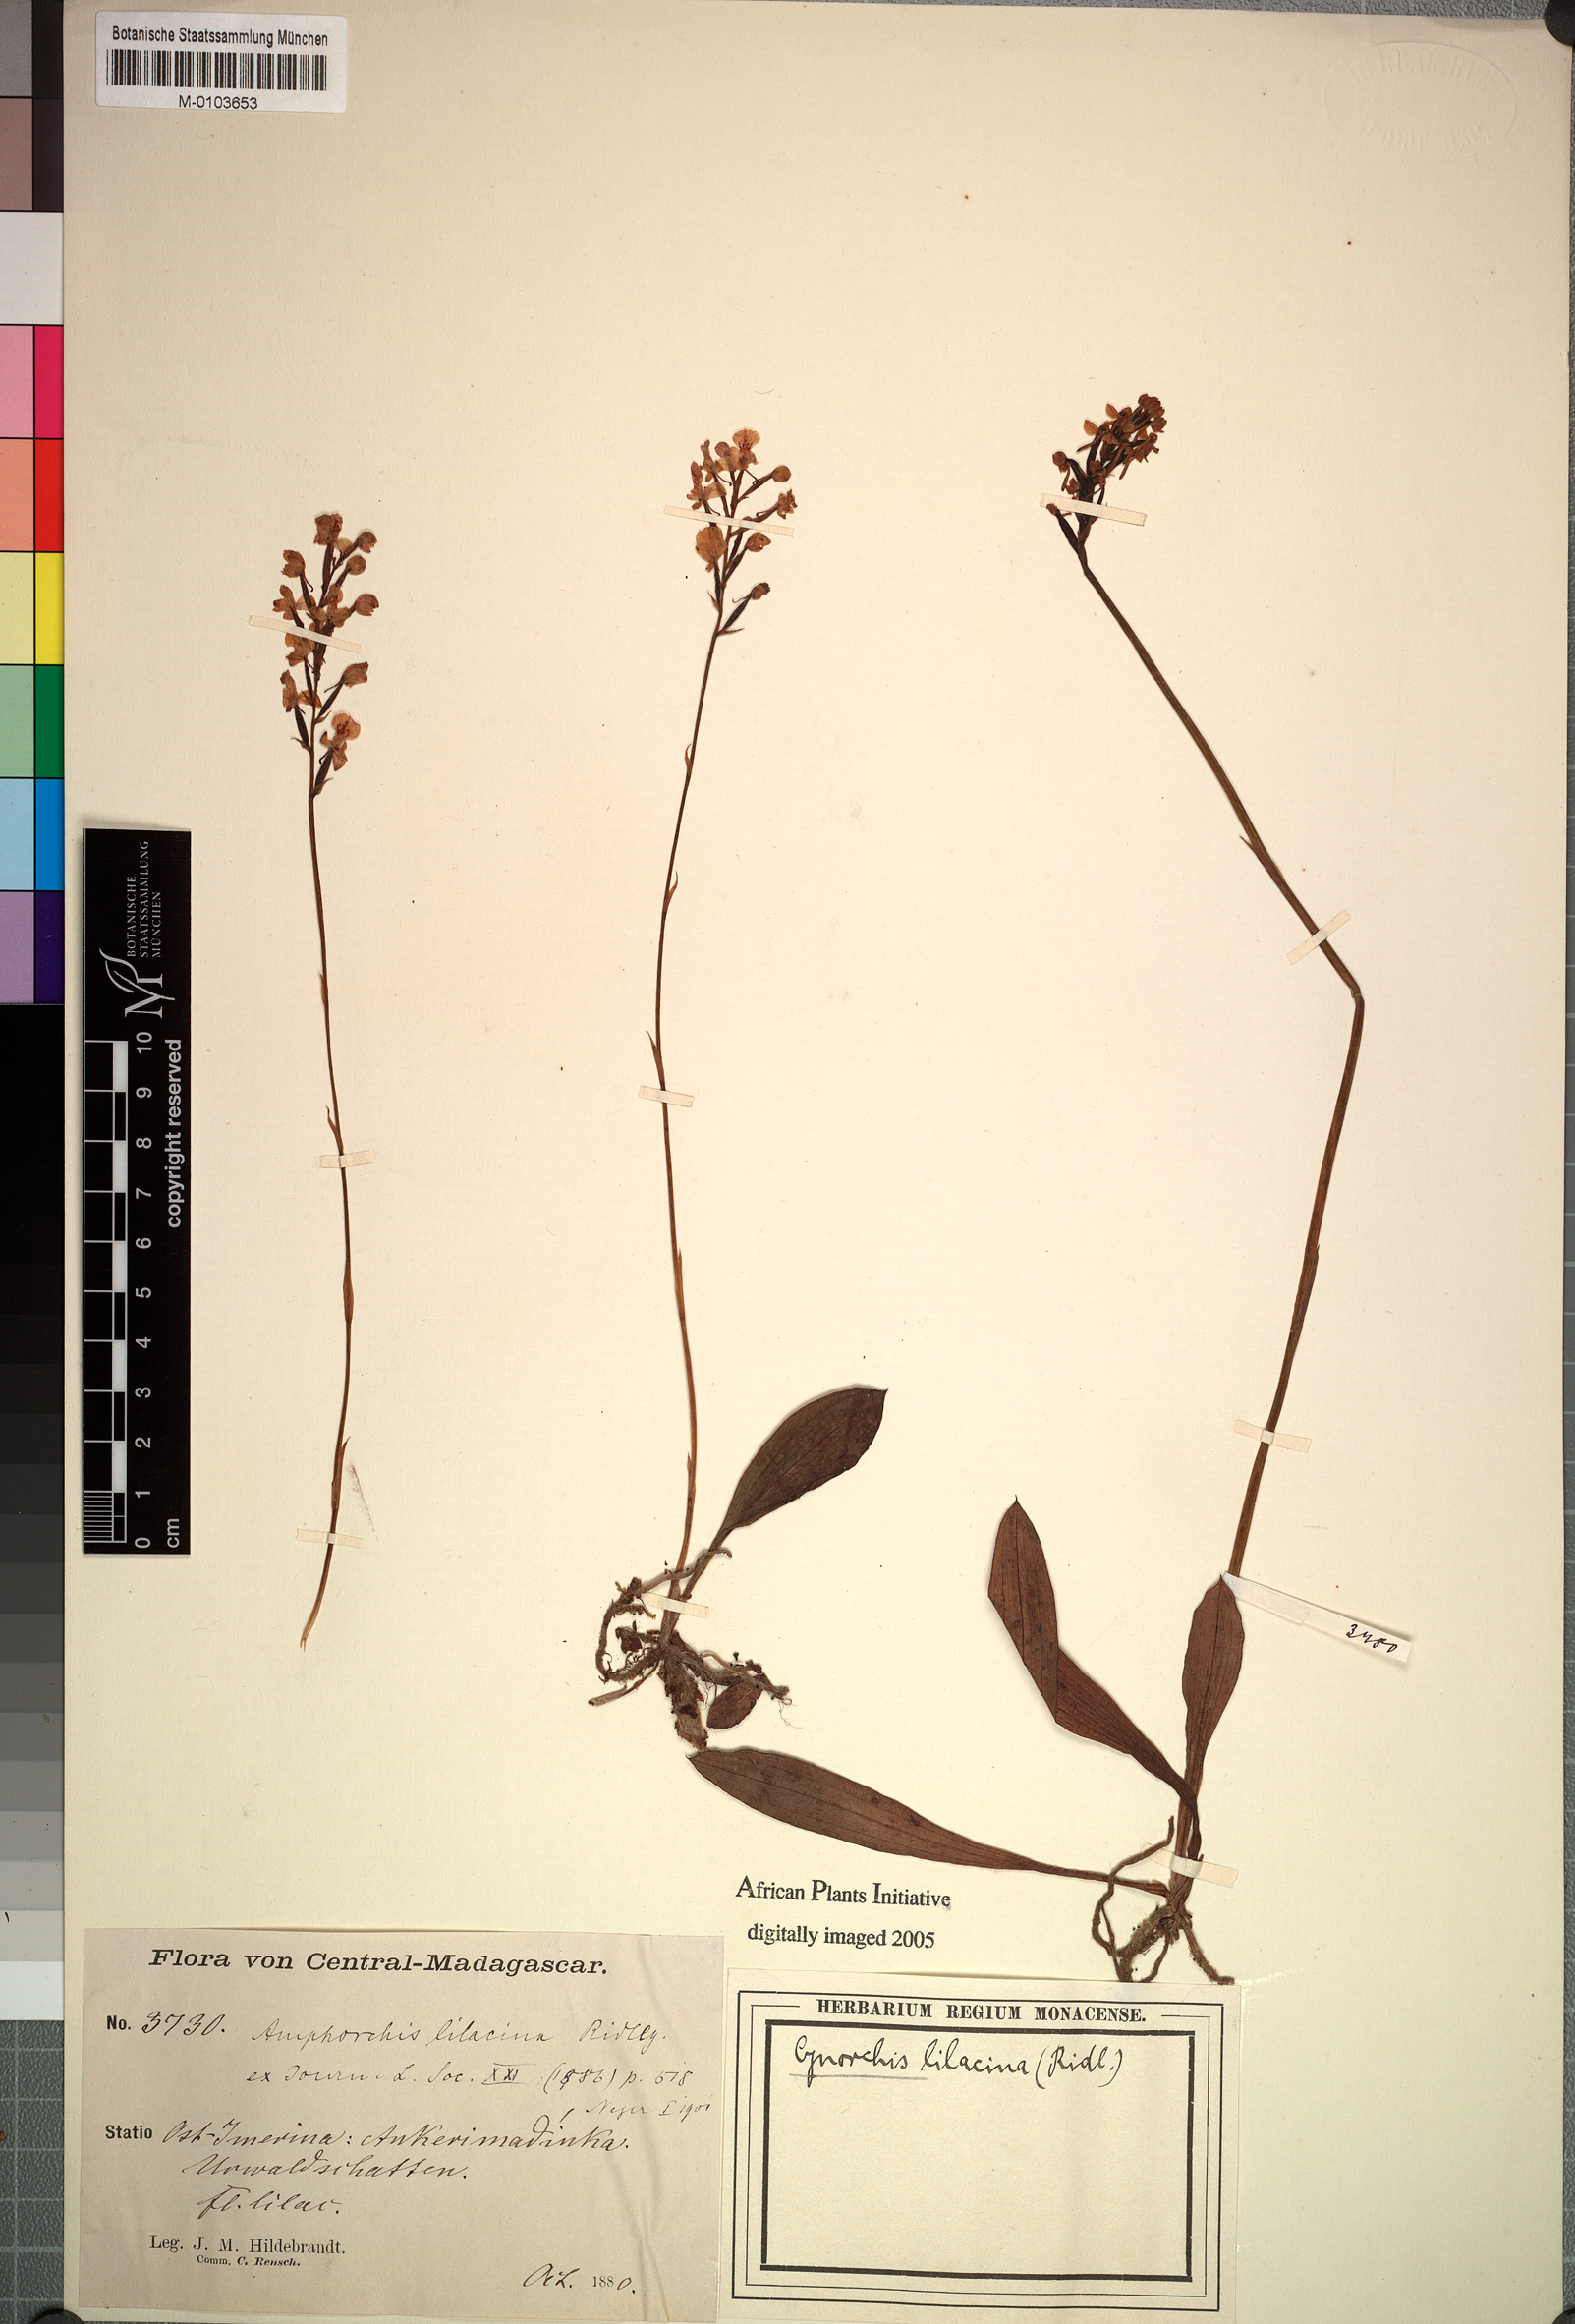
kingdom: Plantae
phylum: Tracheophyta
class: Liliopsida
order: Asparagales
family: Orchidaceae
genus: Cynorkis
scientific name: Cynorkis ridleyi
